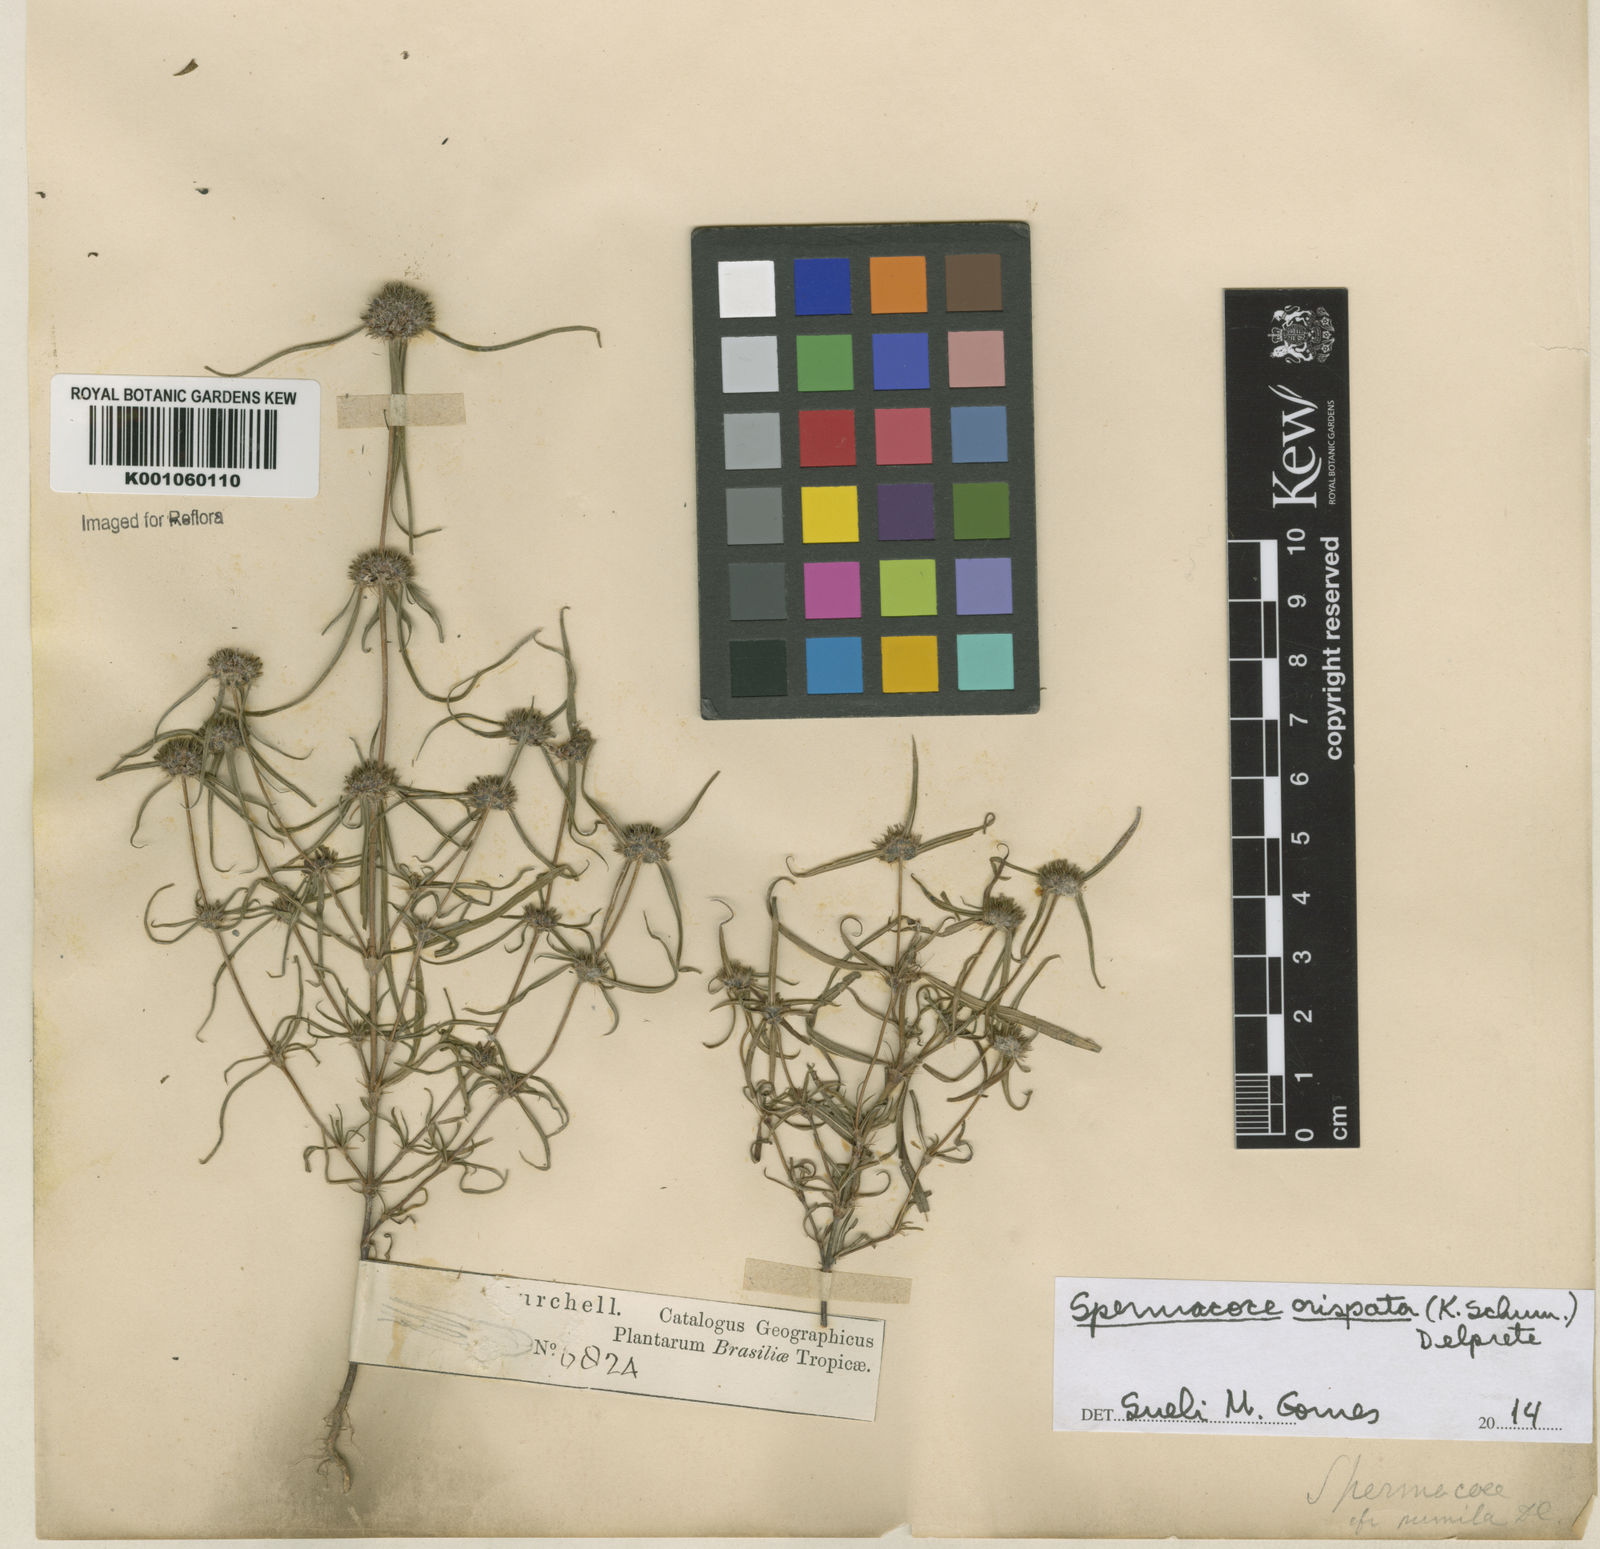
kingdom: Plantae
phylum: Tracheophyta
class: Magnoliopsida
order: Gentianales
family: Rubiaceae
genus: Spermacoce
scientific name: Spermacoce crispata
